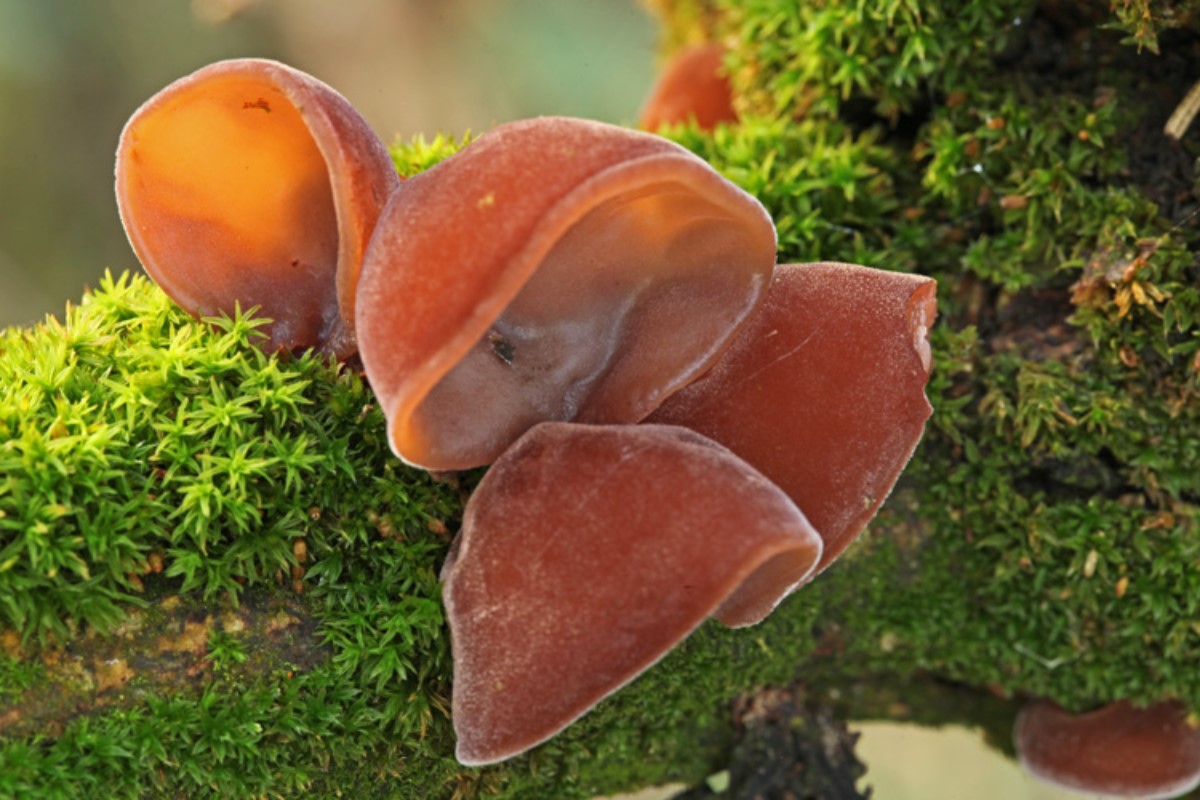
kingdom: Fungi
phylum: Basidiomycota
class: Agaricomycetes
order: Auriculariales
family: Auriculariaceae
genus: Auricularia
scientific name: Auricularia auricula-judae
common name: almindelig judasøre
